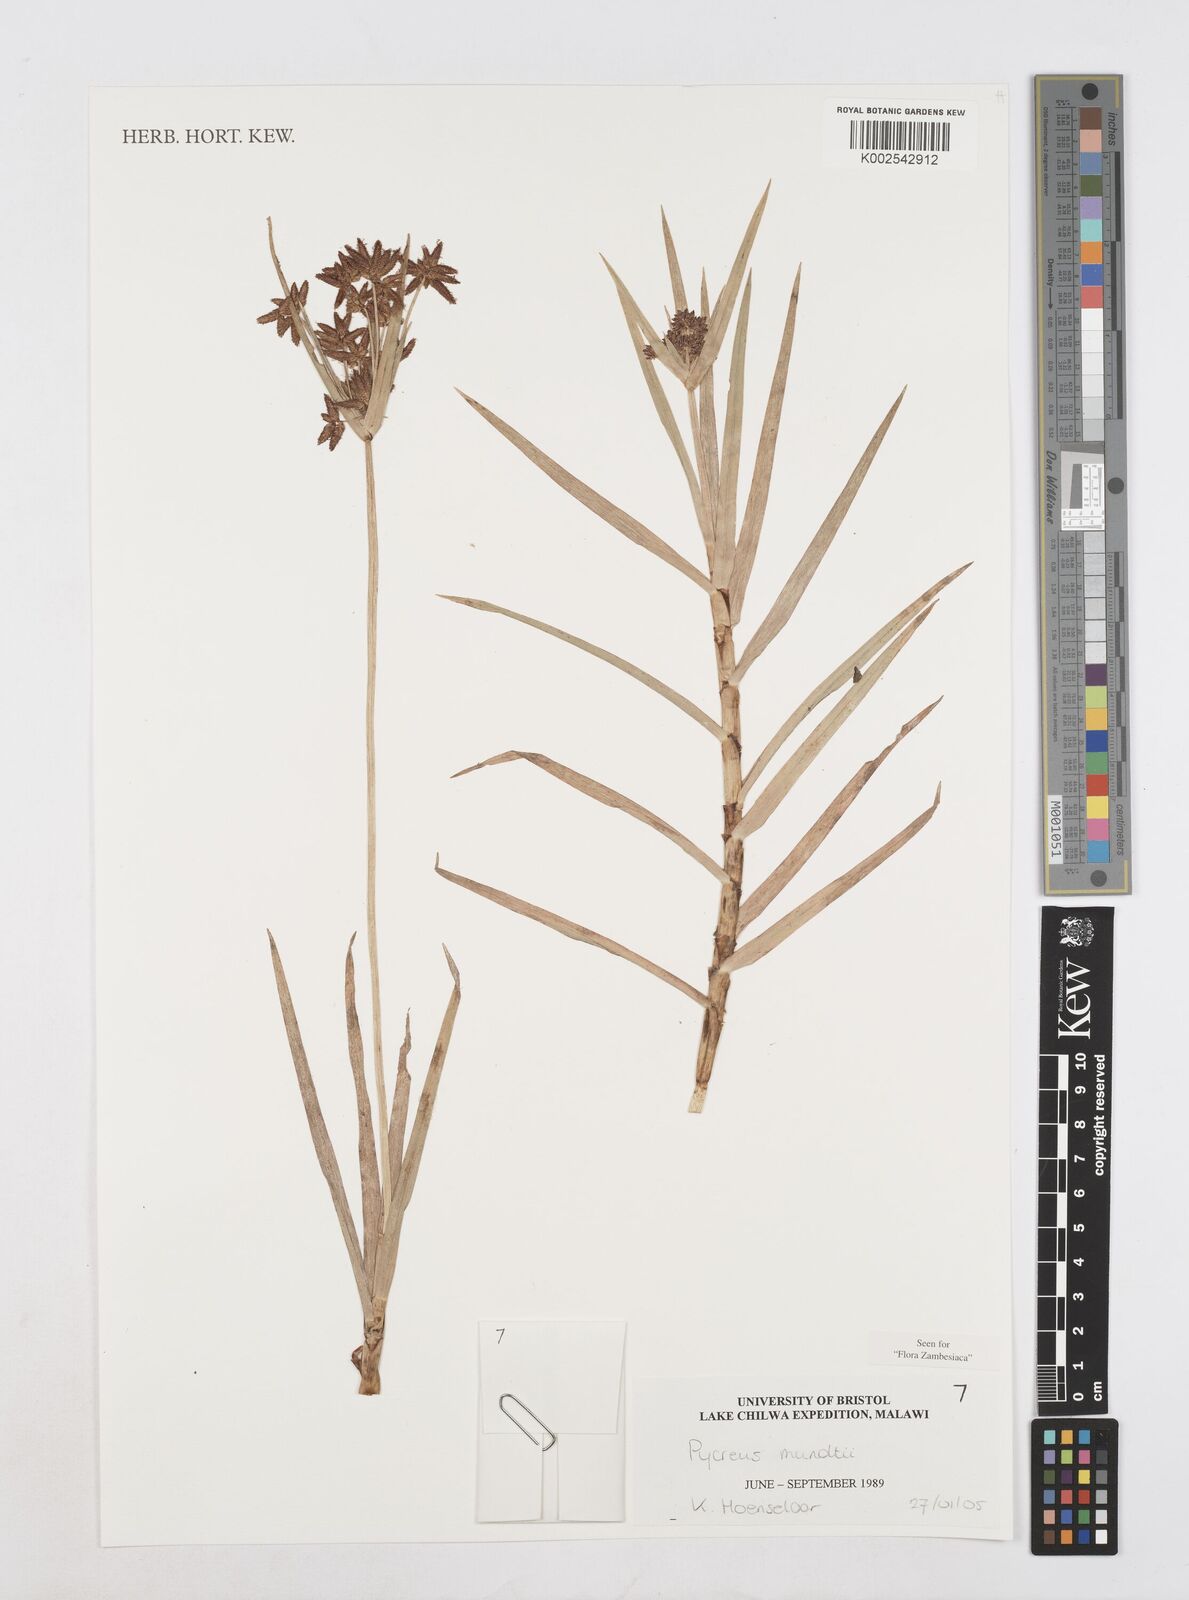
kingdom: Plantae
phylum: Tracheophyta
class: Liliopsida
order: Poales
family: Cyperaceae
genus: Cyperus
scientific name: Cyperus mundii
